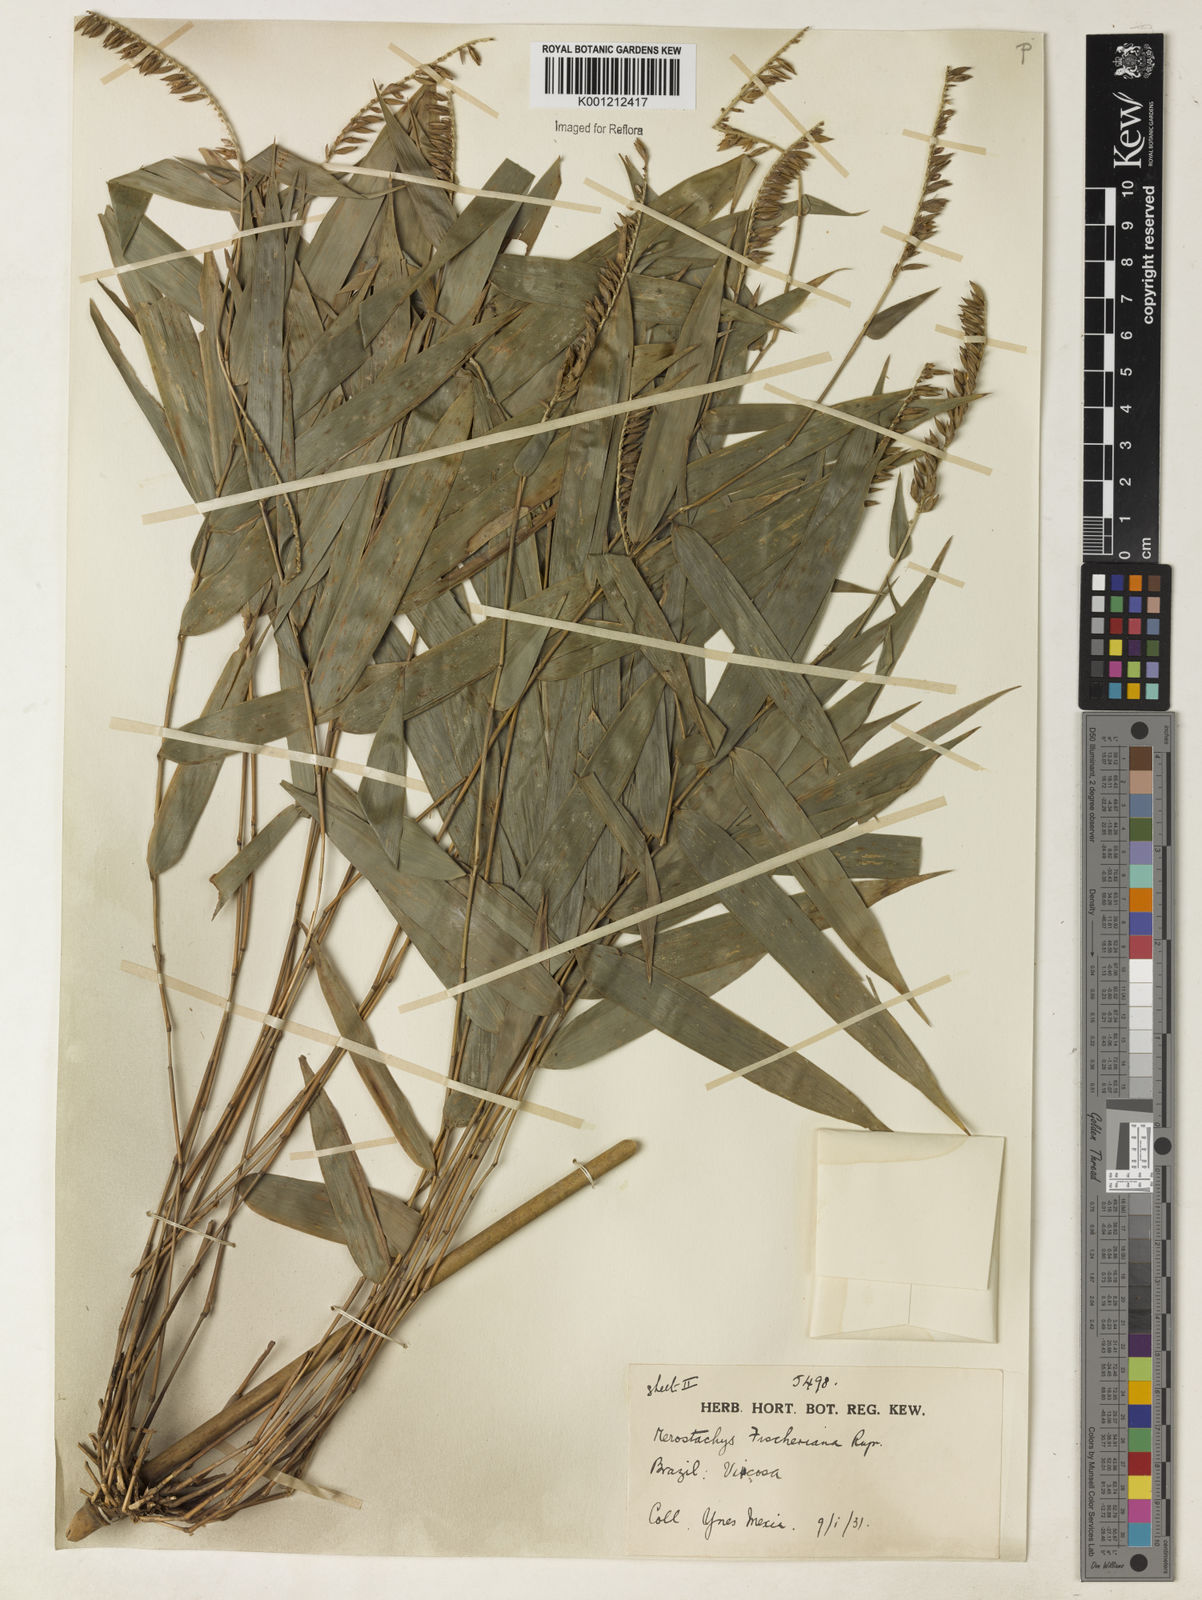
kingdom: Plantae
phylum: Tracheophyta
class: Liliopsida
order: Poales
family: Poaceae
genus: Merostachys
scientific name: Merostachys
